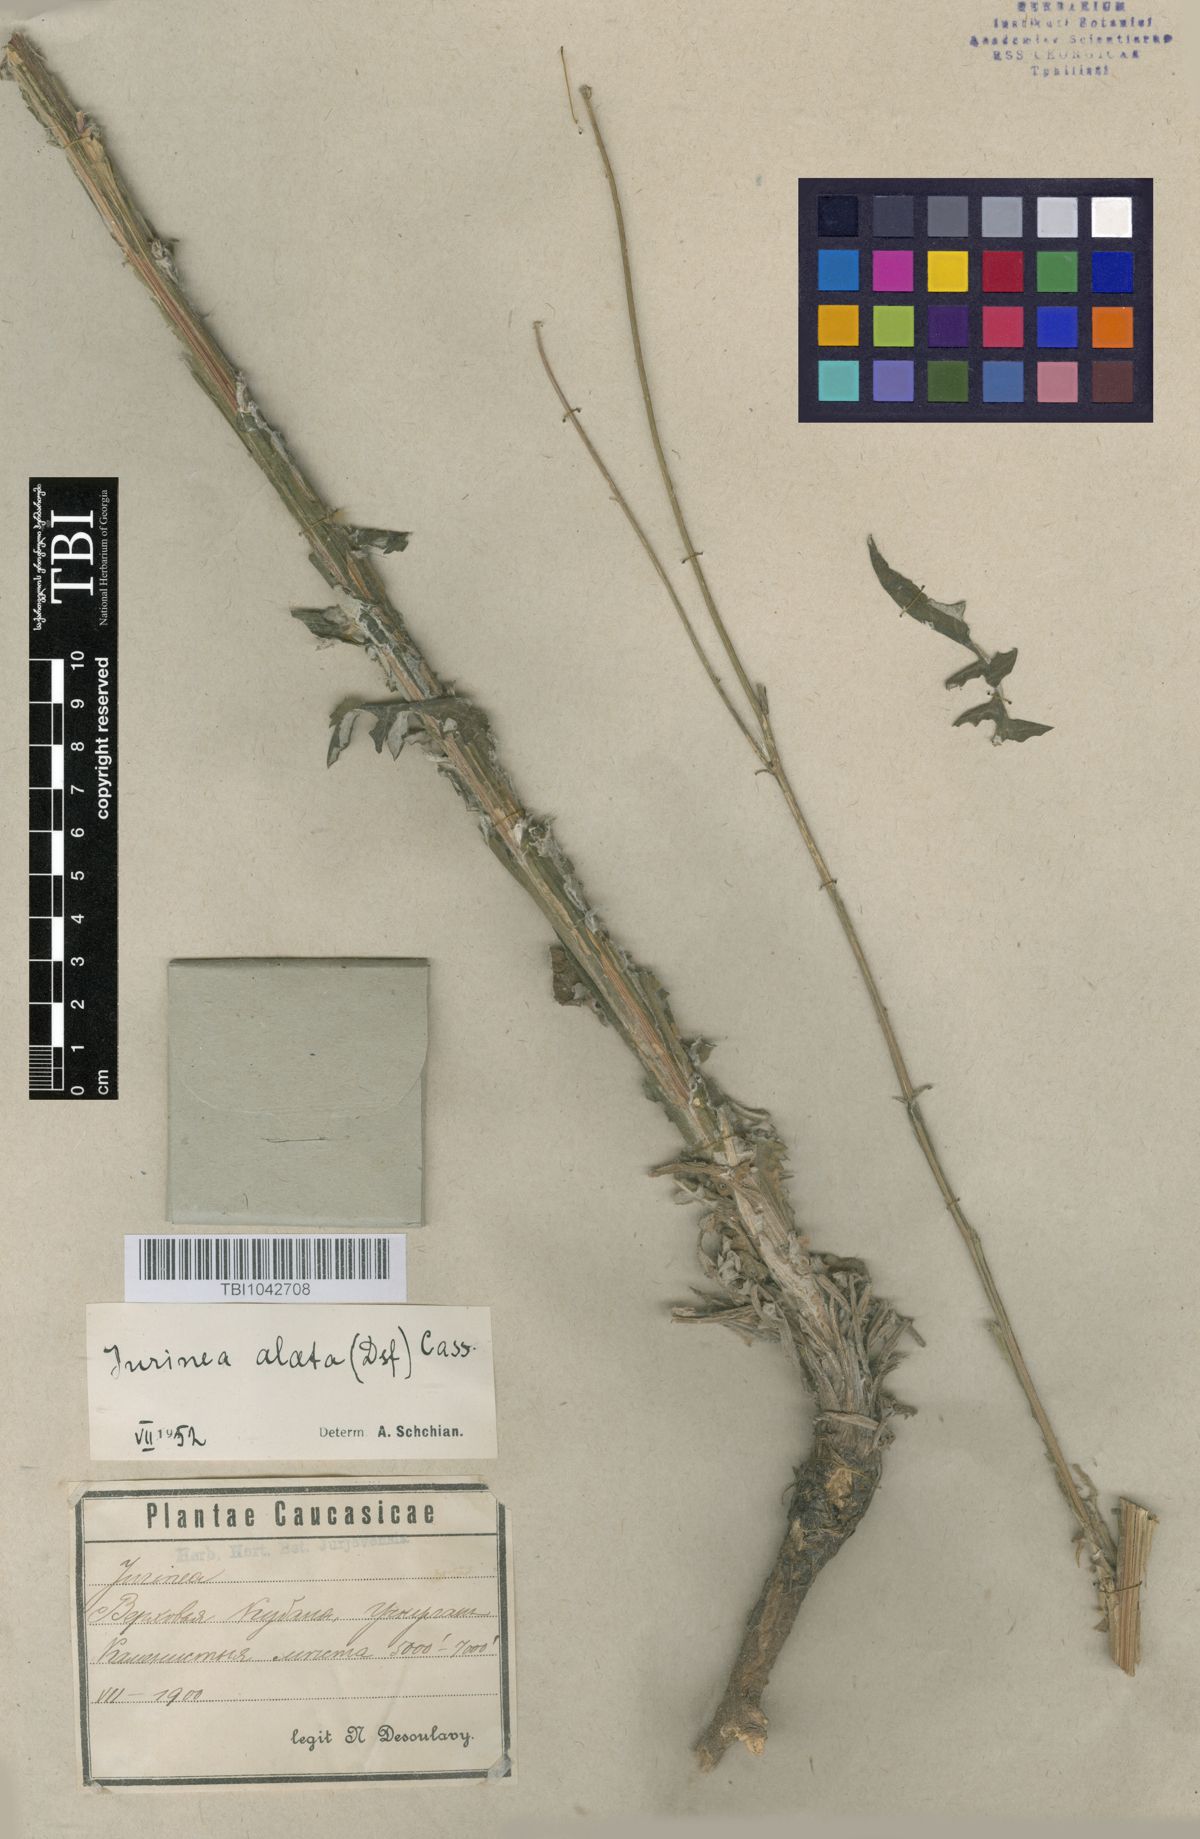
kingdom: Plantae
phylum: Tracheophyta
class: Magnoliopsida
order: Asterales
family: Asteraceae
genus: Jurinea
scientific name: Jurinea alata
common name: Winged jurinea
